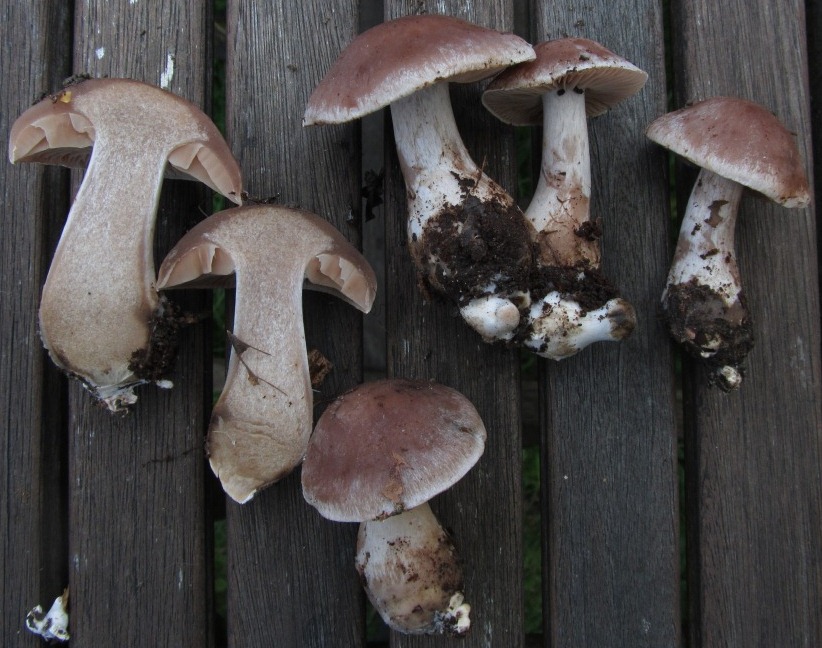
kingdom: Fungi
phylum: Basidiomycota
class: Agaricomycetes
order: Agaricales
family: Cortinariaceae
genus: Cortinarius
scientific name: Cortinarius nefastus
